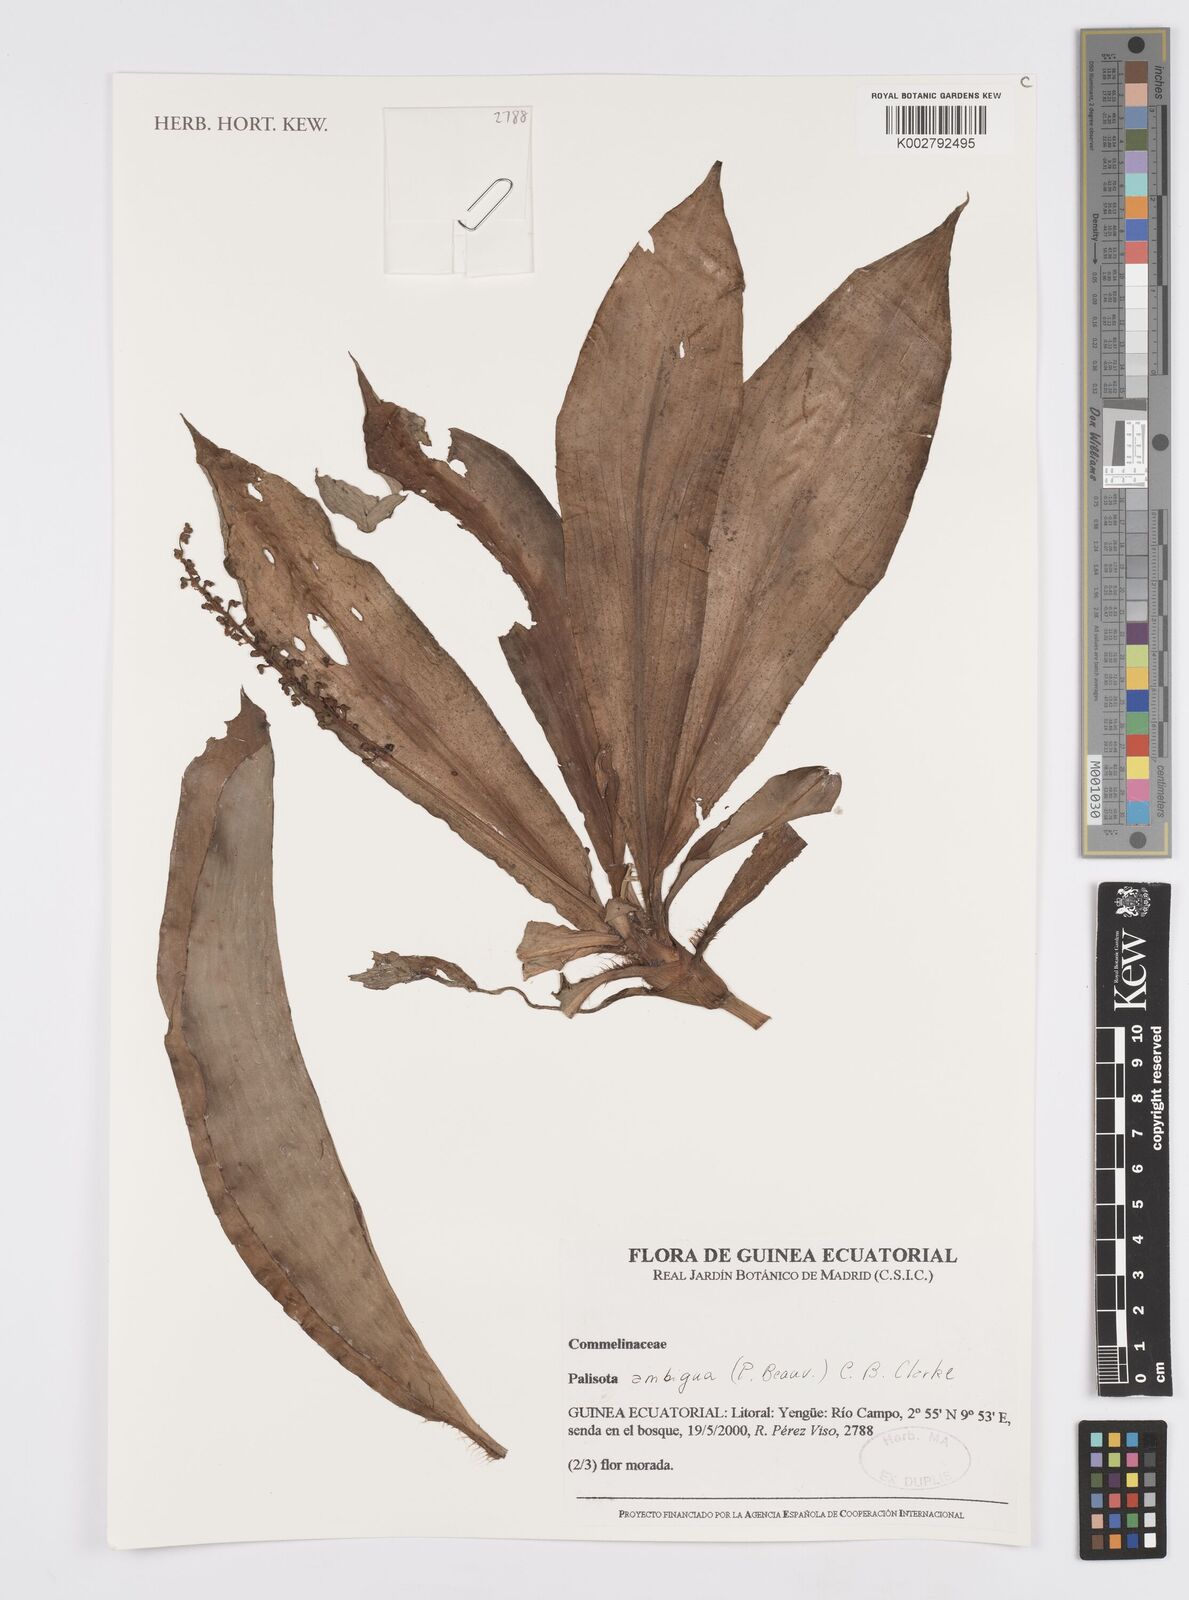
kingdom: Plantae
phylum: Tracheophyta
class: Liliopsida
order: Commelinales
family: Commelinaceae
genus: Palisota
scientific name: Palisota ambigua
